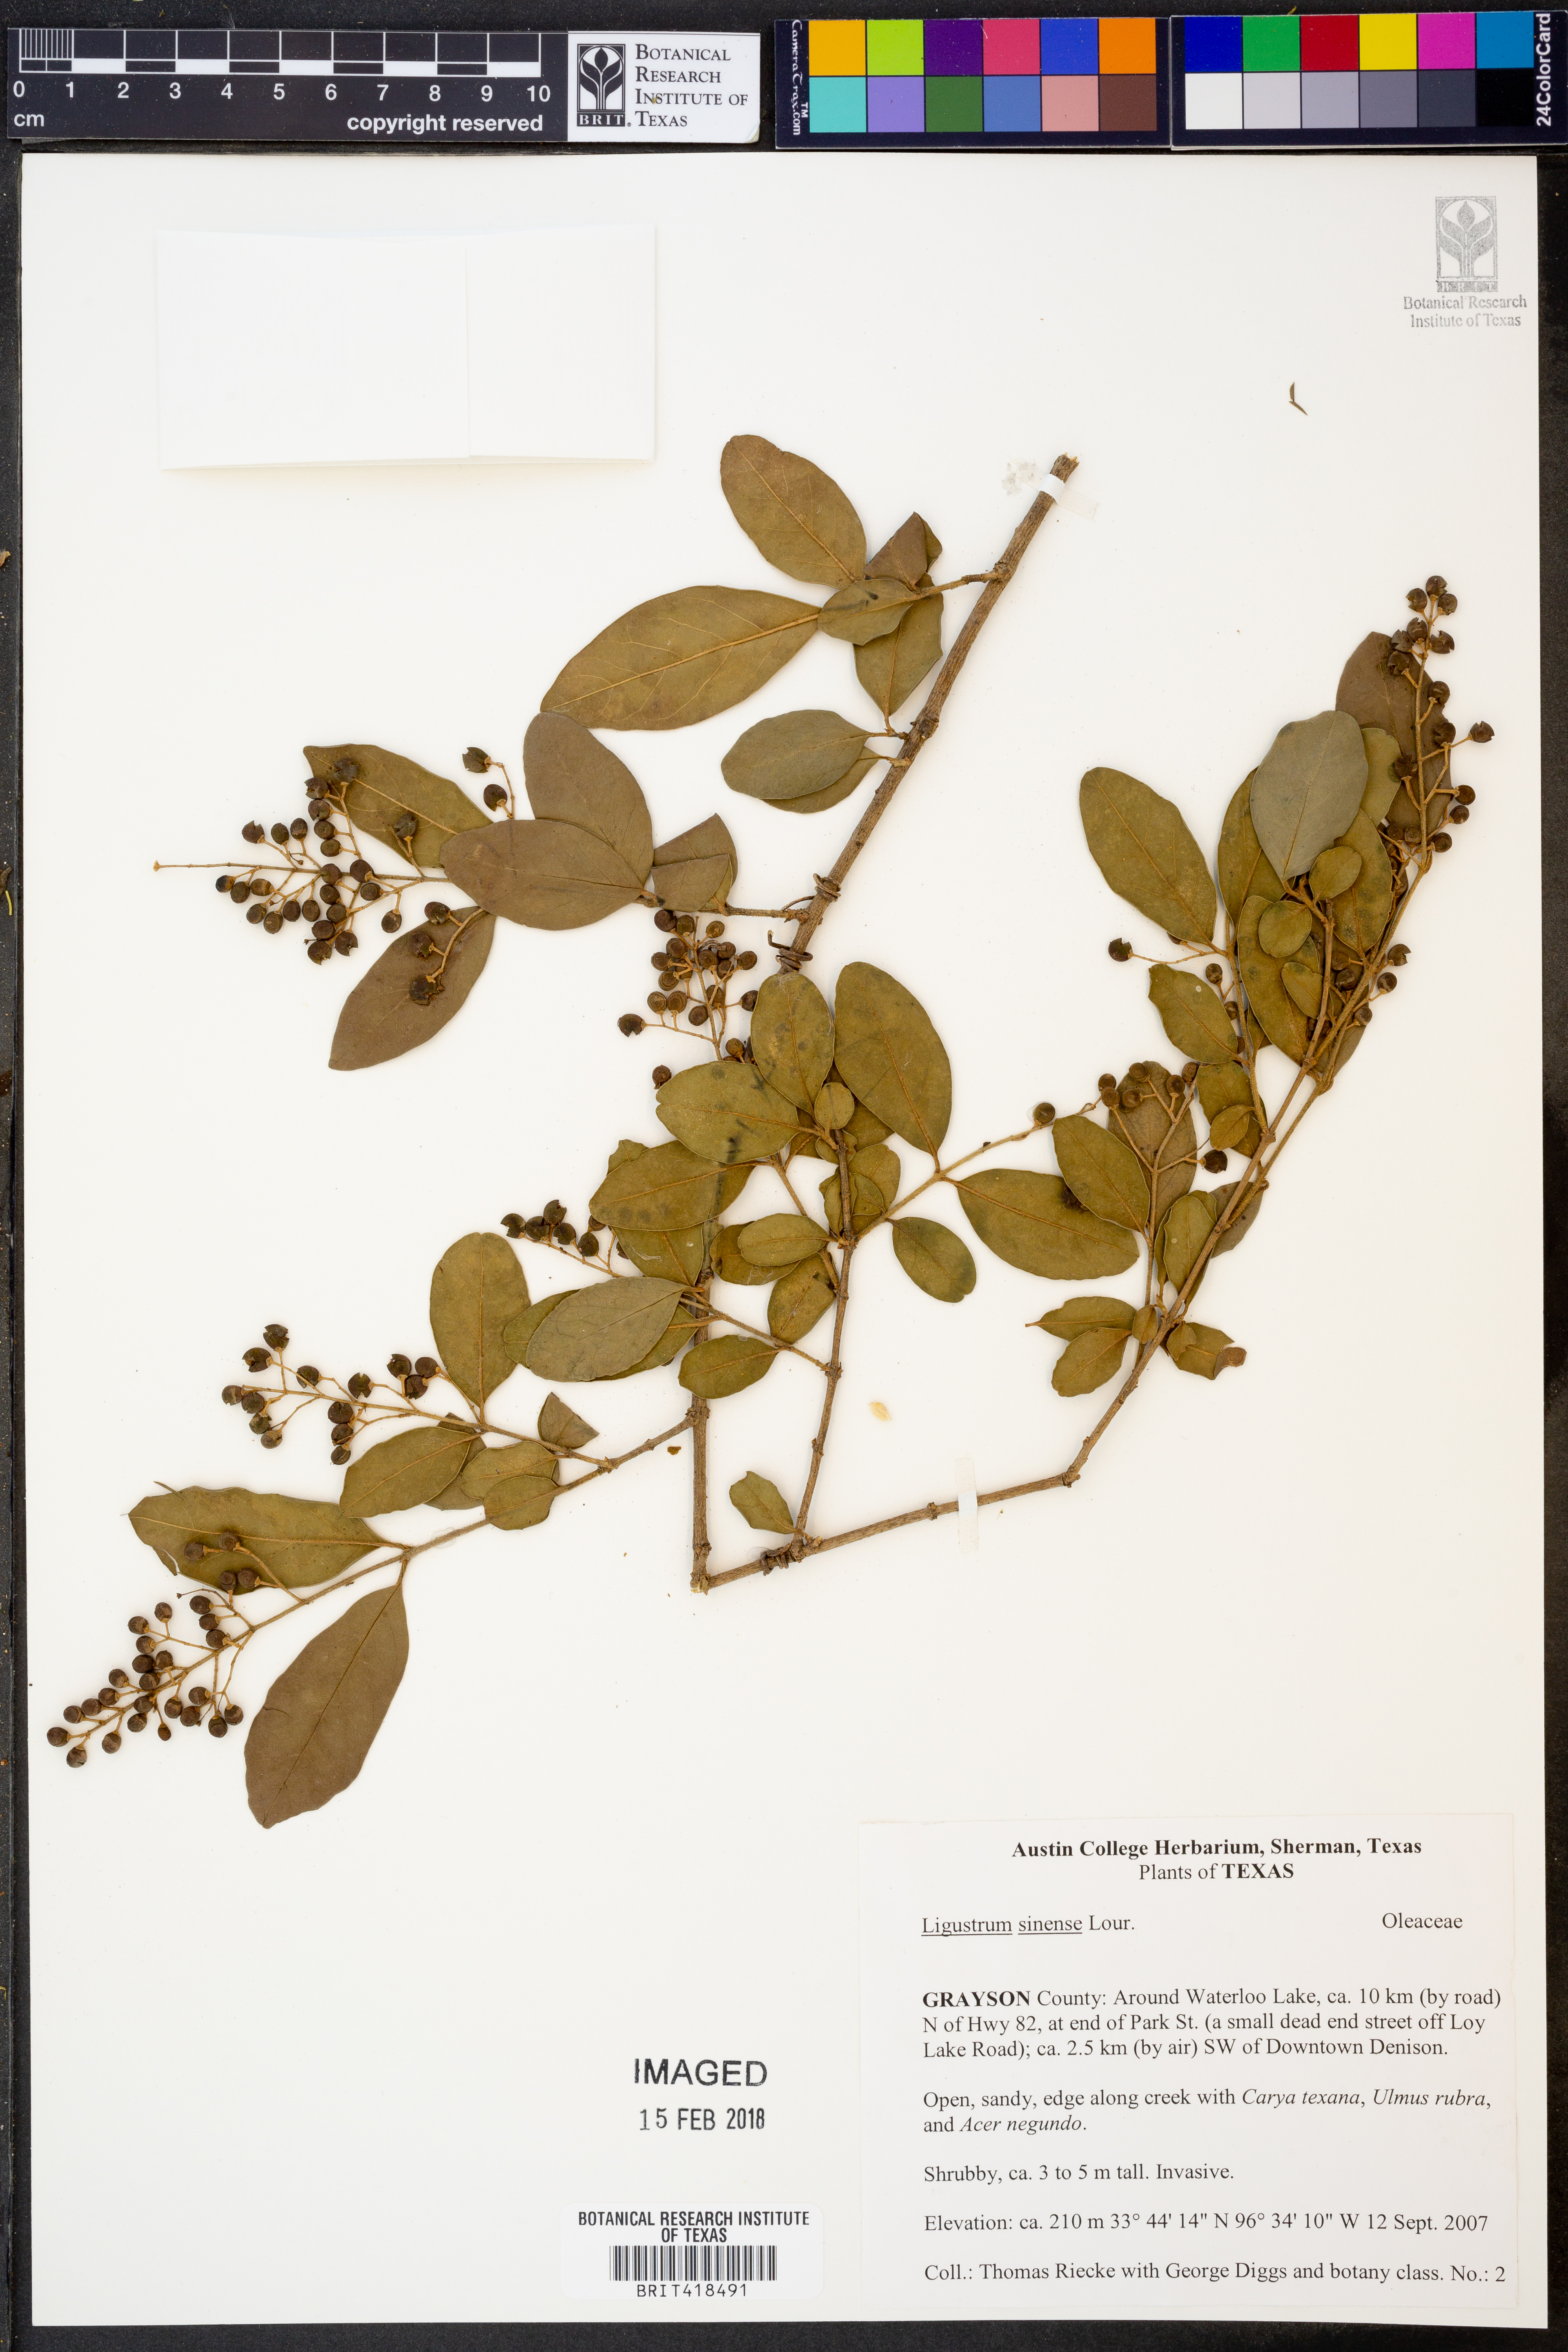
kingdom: Plantae
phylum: Tracheophyta
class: Magnoliopsida
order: Lamiales
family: Oleaceae
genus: Ligustrum
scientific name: Ligustrum sinense
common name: Chinese privet
